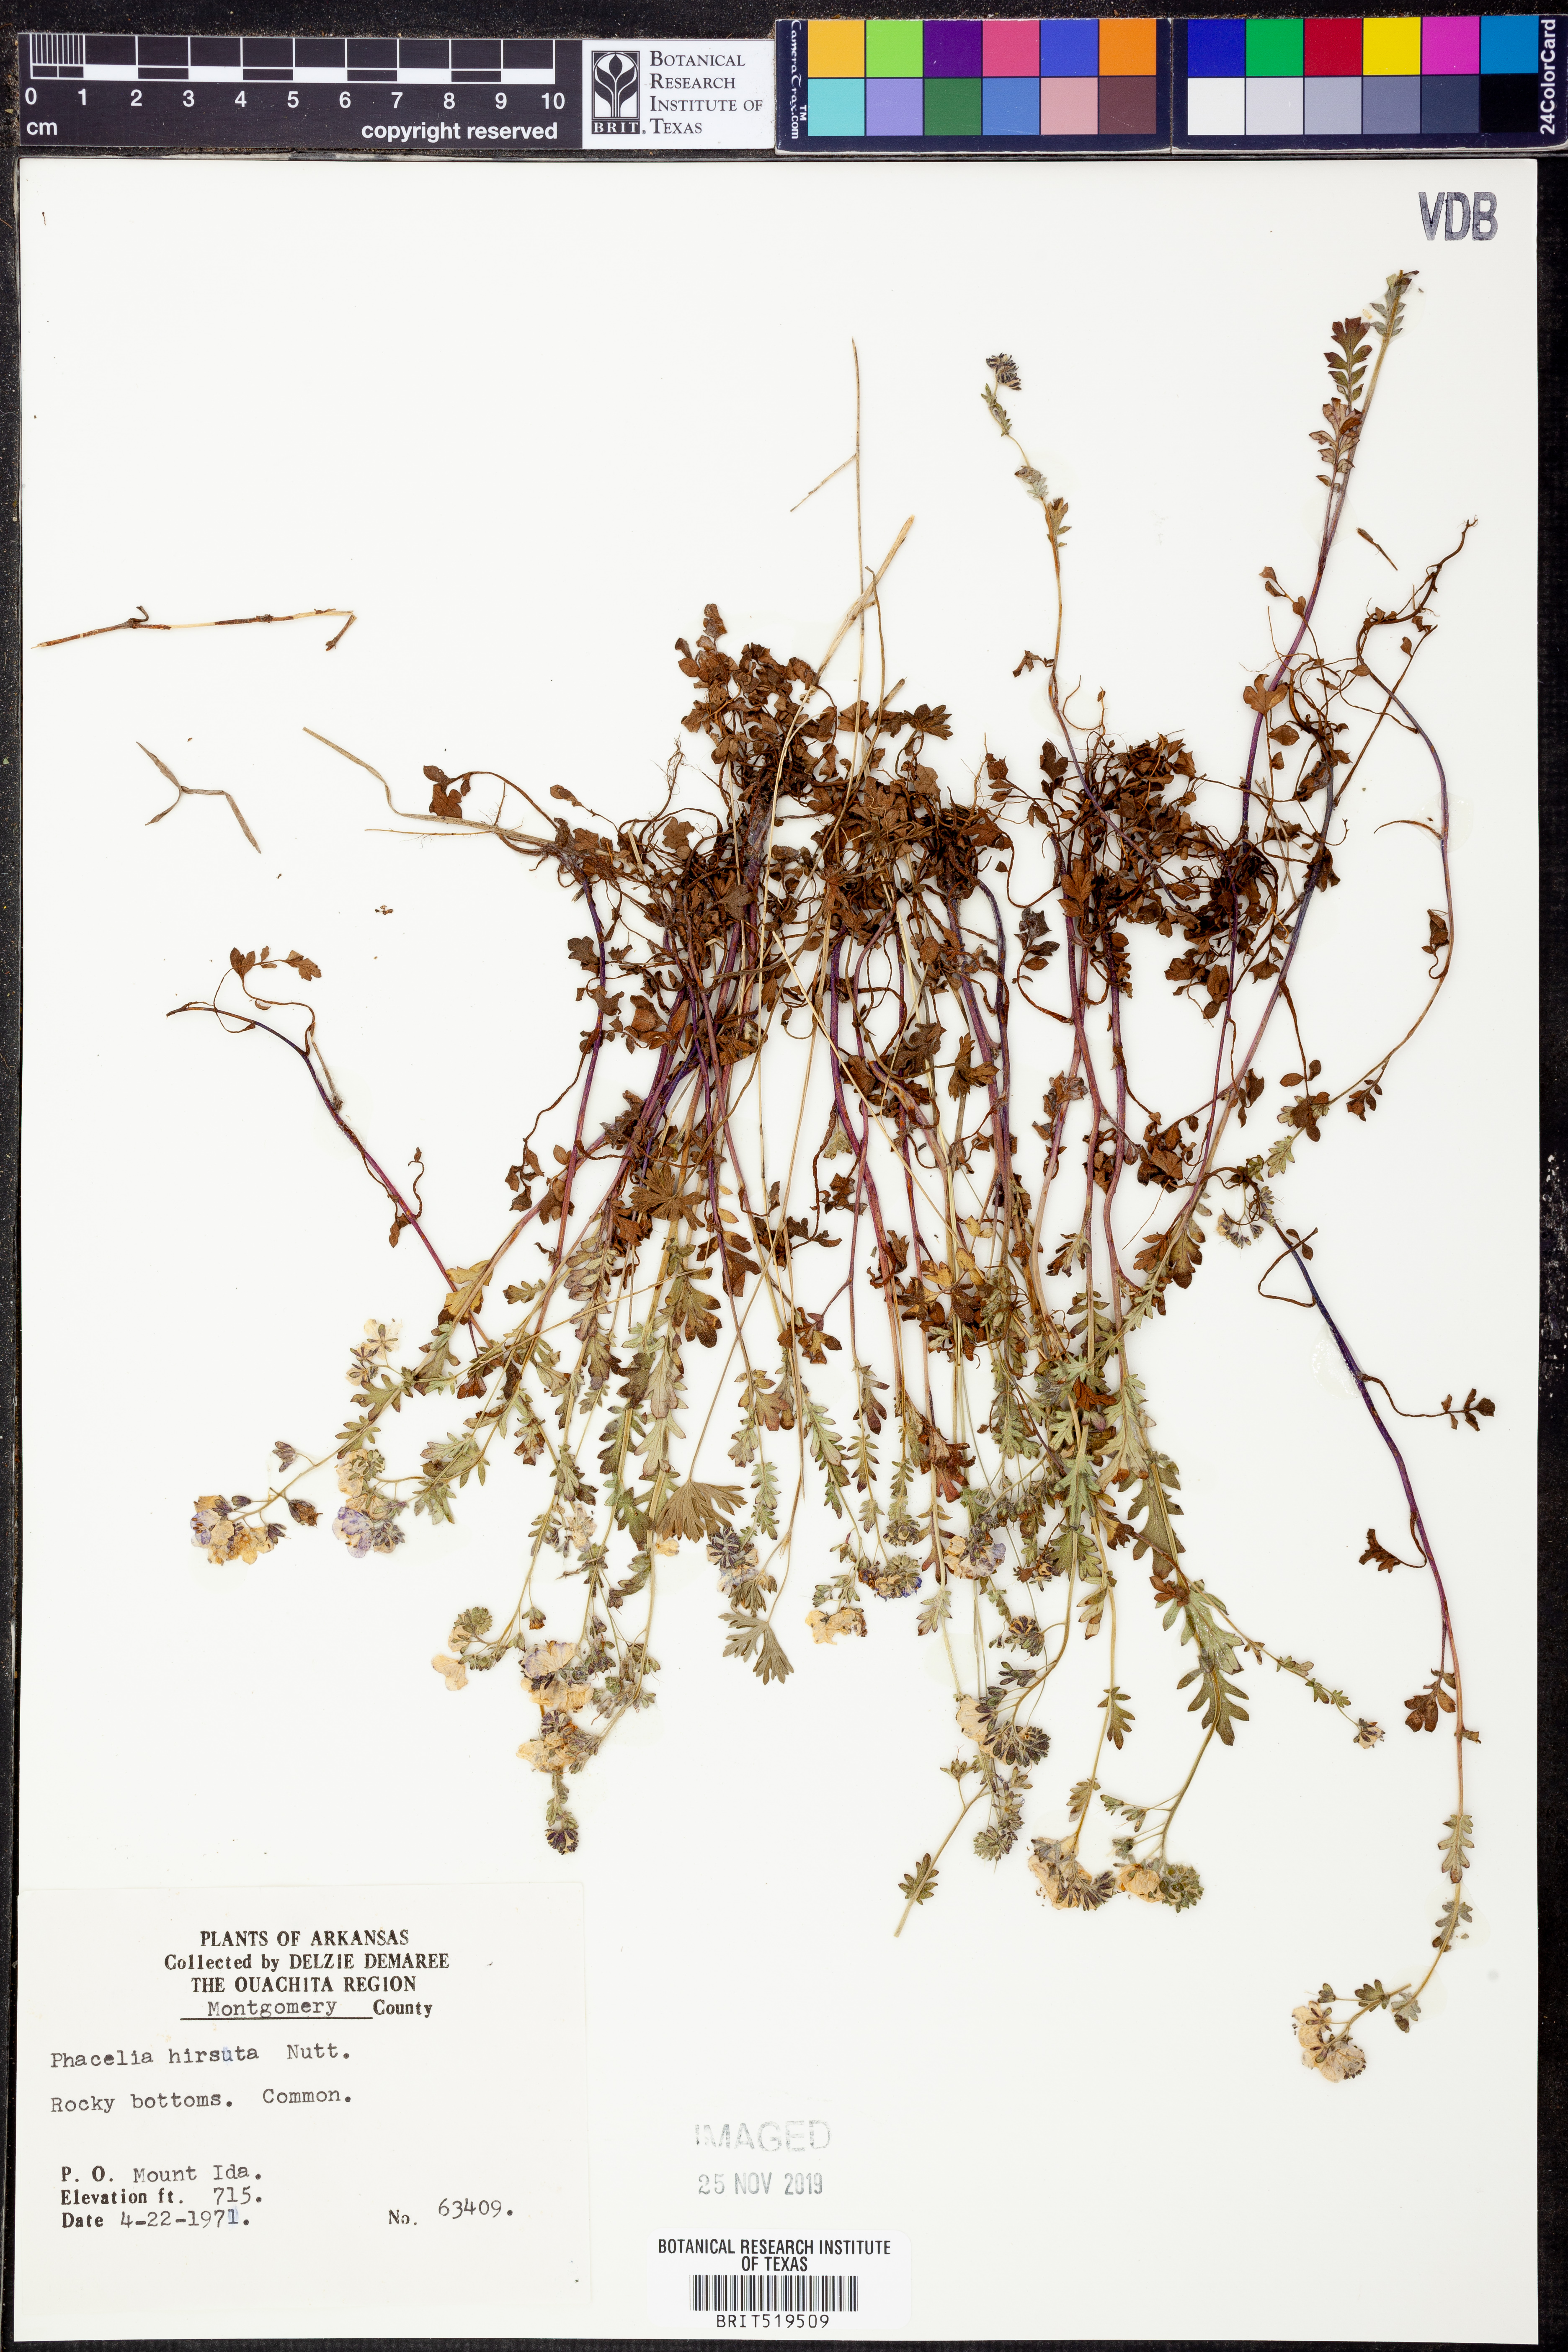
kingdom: Plantae
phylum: Tracheophyta
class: Magnoliopsida
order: Boraginales
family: Hydrophyllaceae
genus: Phacelia
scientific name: Phacelia
